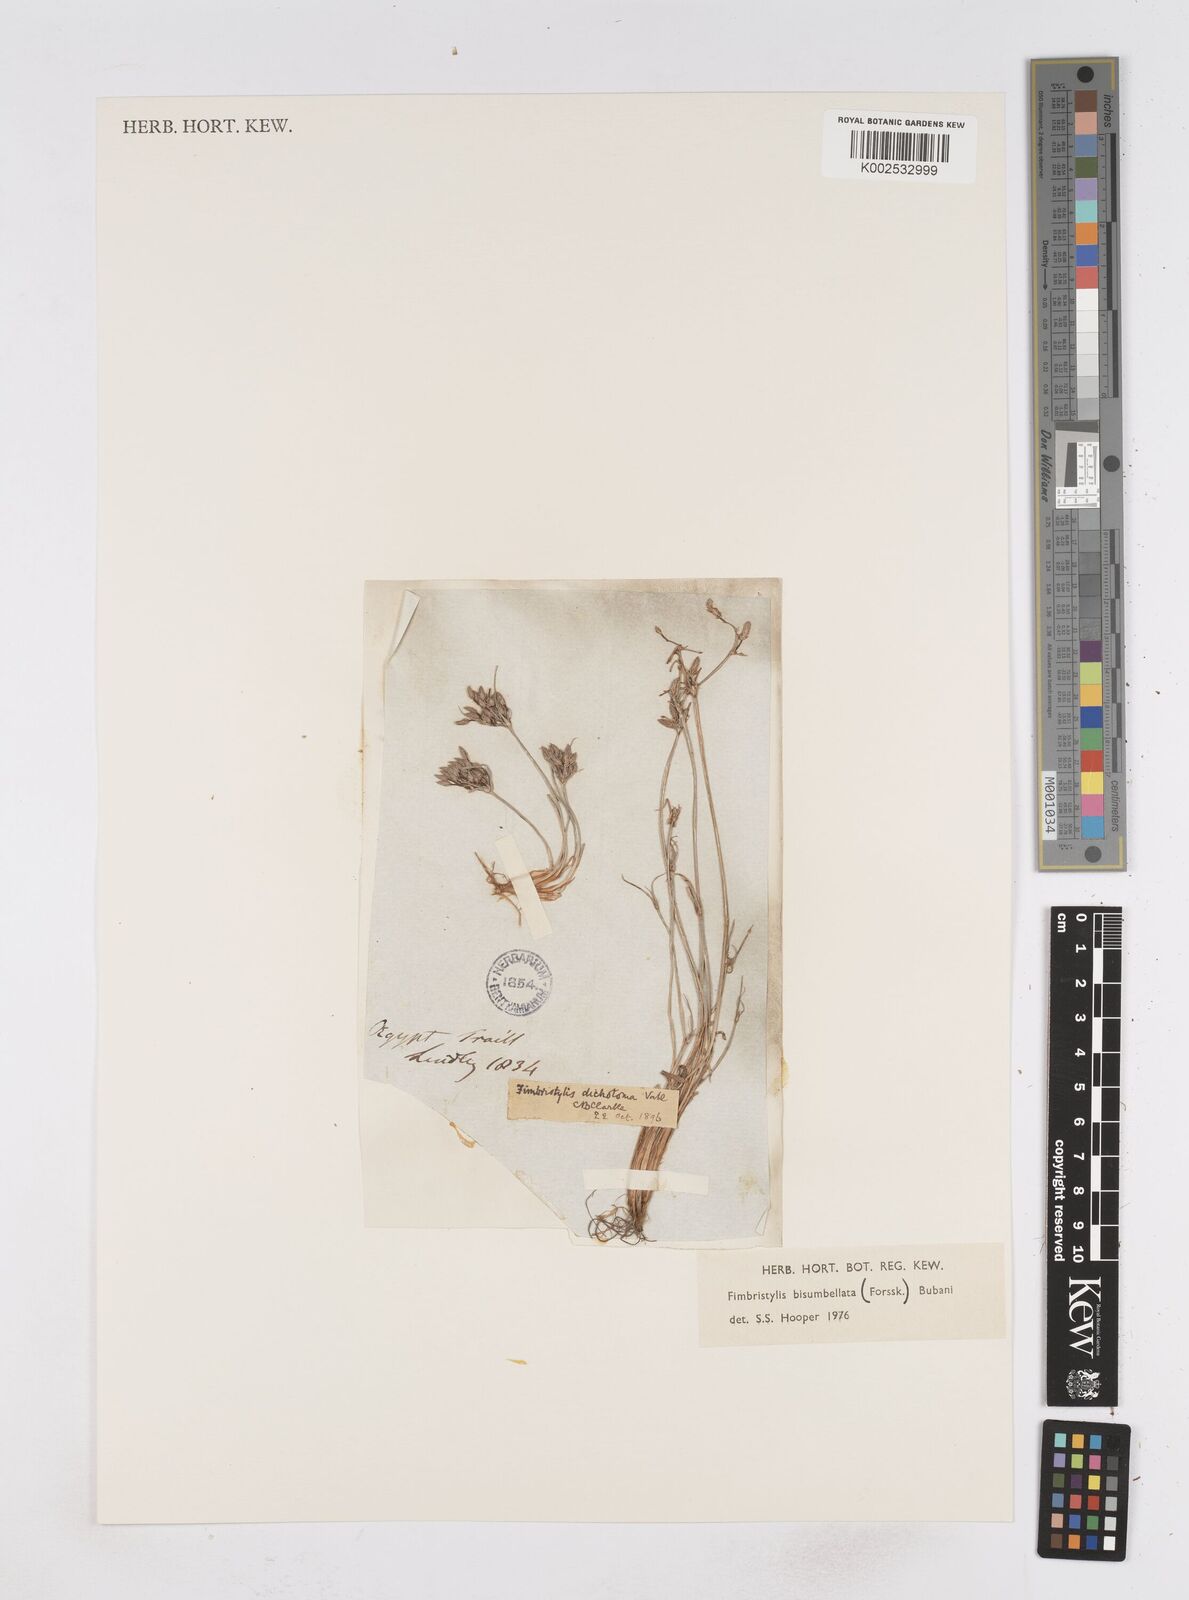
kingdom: Plantae
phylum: Tracheophyta
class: Liliopsida
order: Poales
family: Cyperaceae
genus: Fimbristylis
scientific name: Fimbristylis bisumbellata
